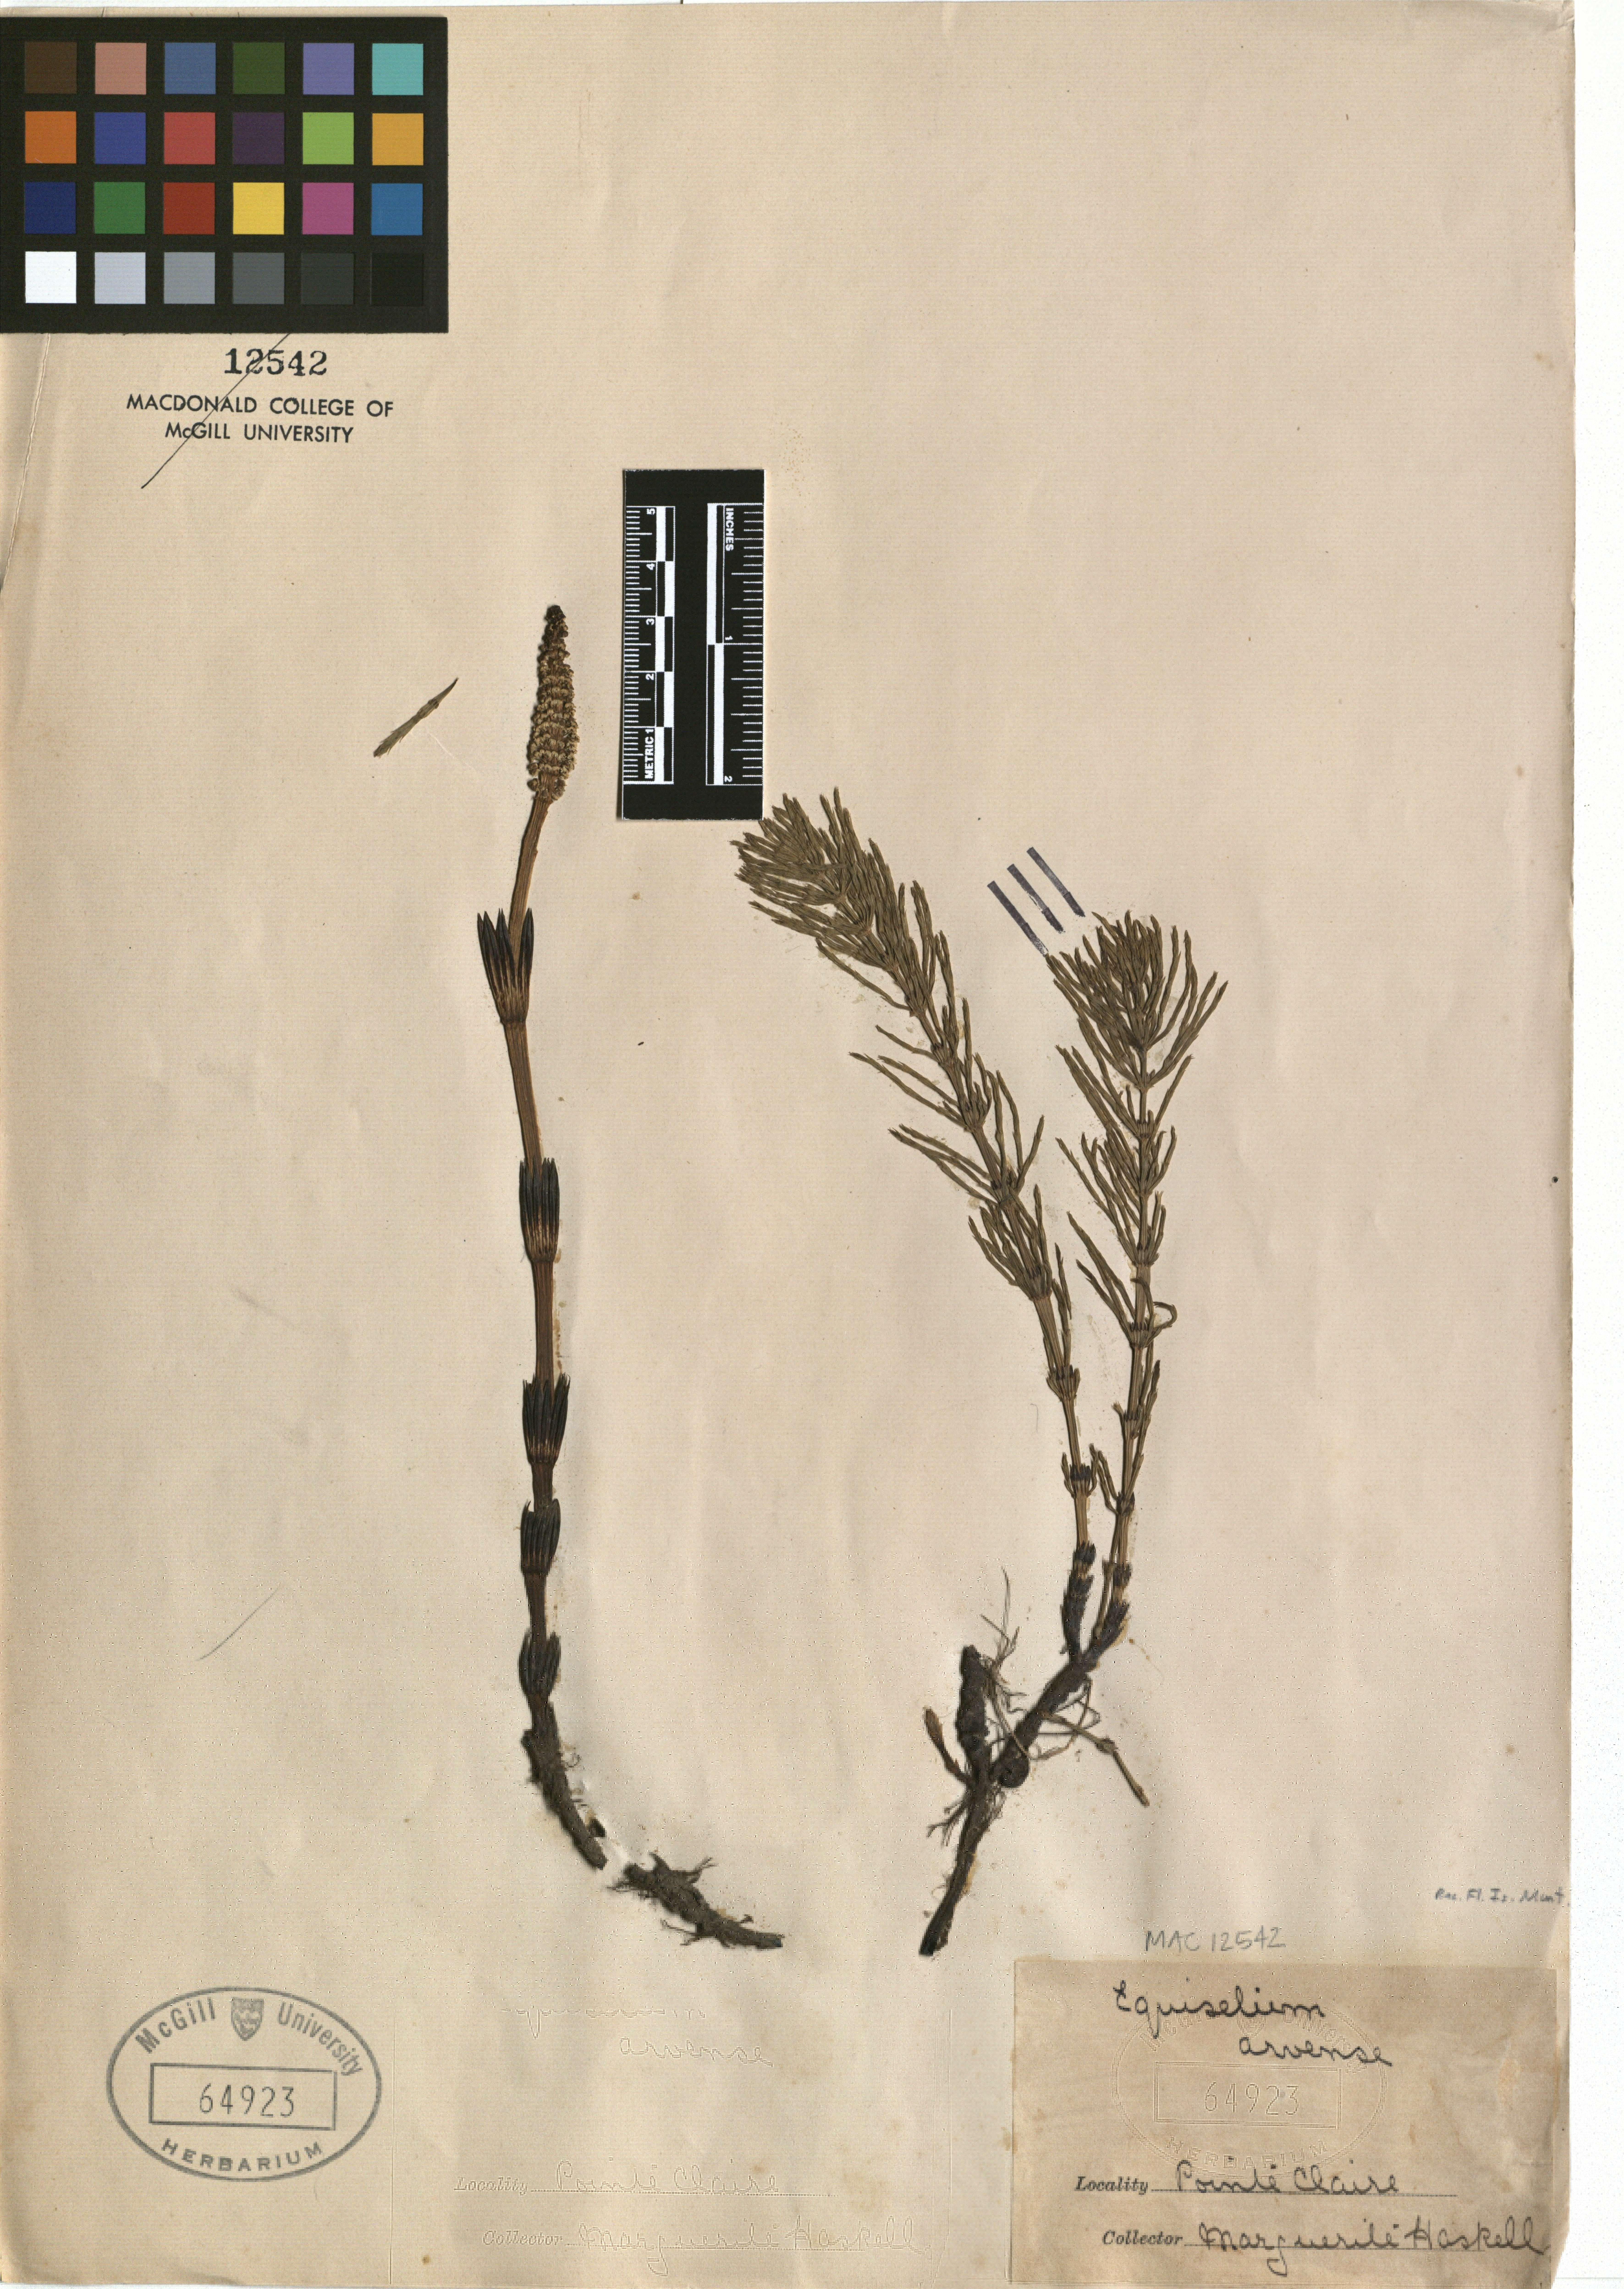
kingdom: Plantae
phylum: Tracheophyta
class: Polypodiopsida
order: Equisetales
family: Equisetaceae
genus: Equisetum
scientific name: Equisetum arvense
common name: Field horsetail
